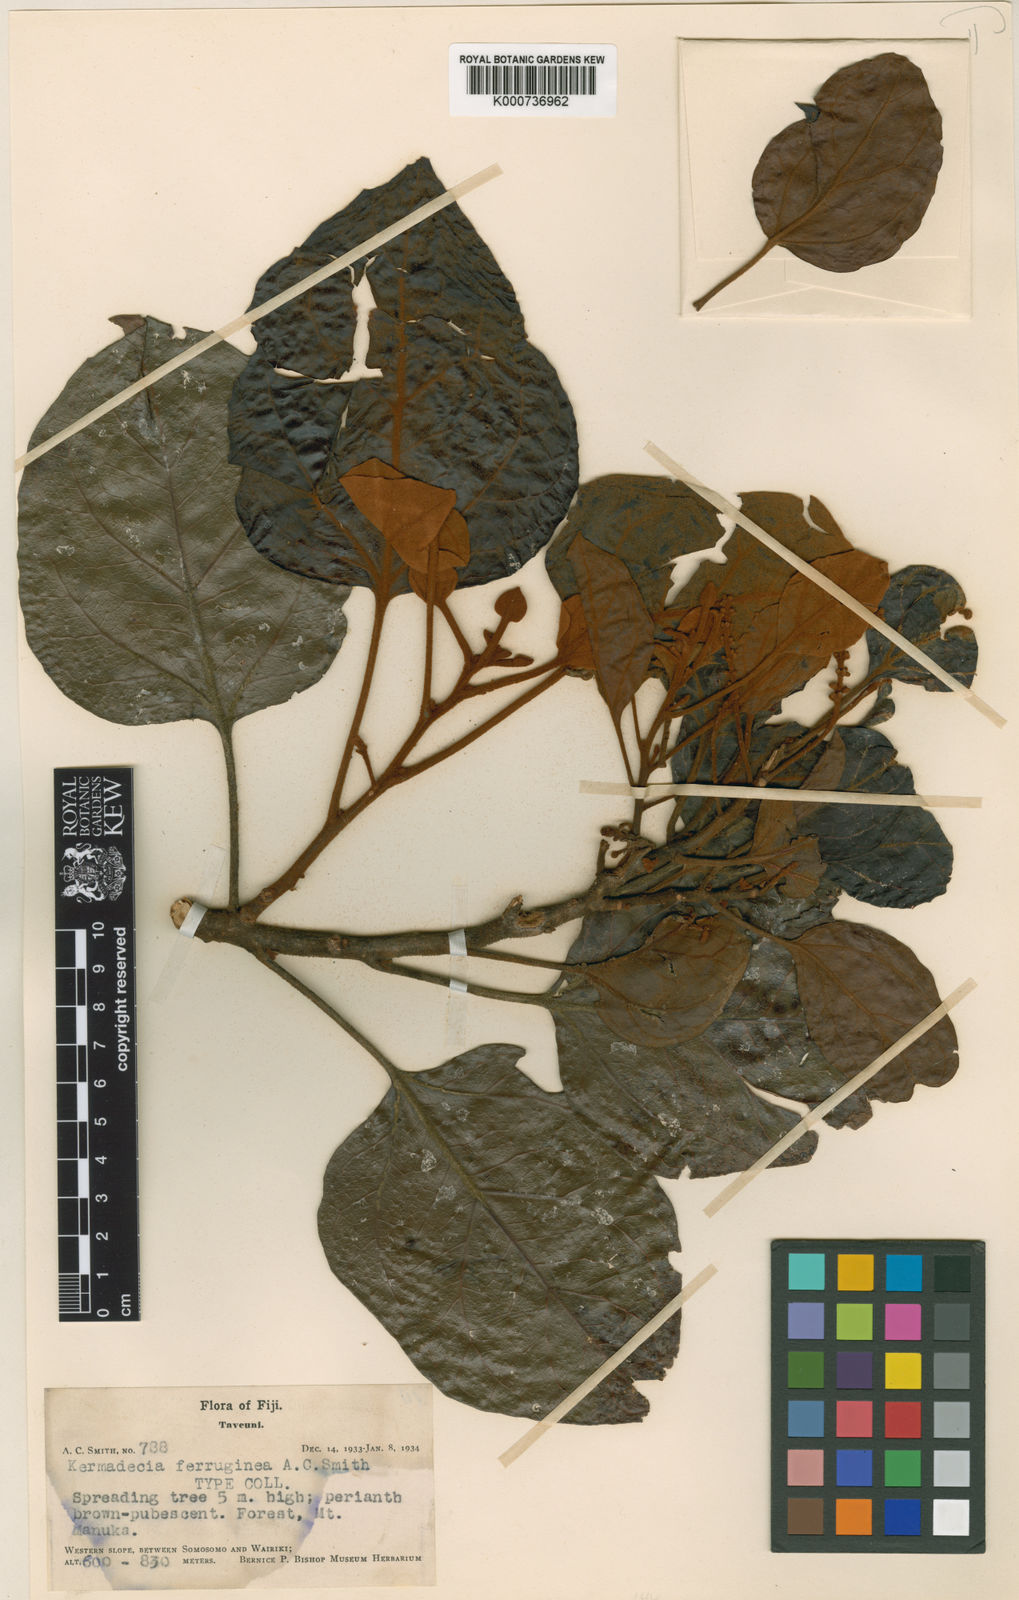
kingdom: Plantae
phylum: Tracheophyta
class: Magnoliopsida
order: Proteales
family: Proteaceae
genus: Turrillia
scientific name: Turrillia ferruginea
